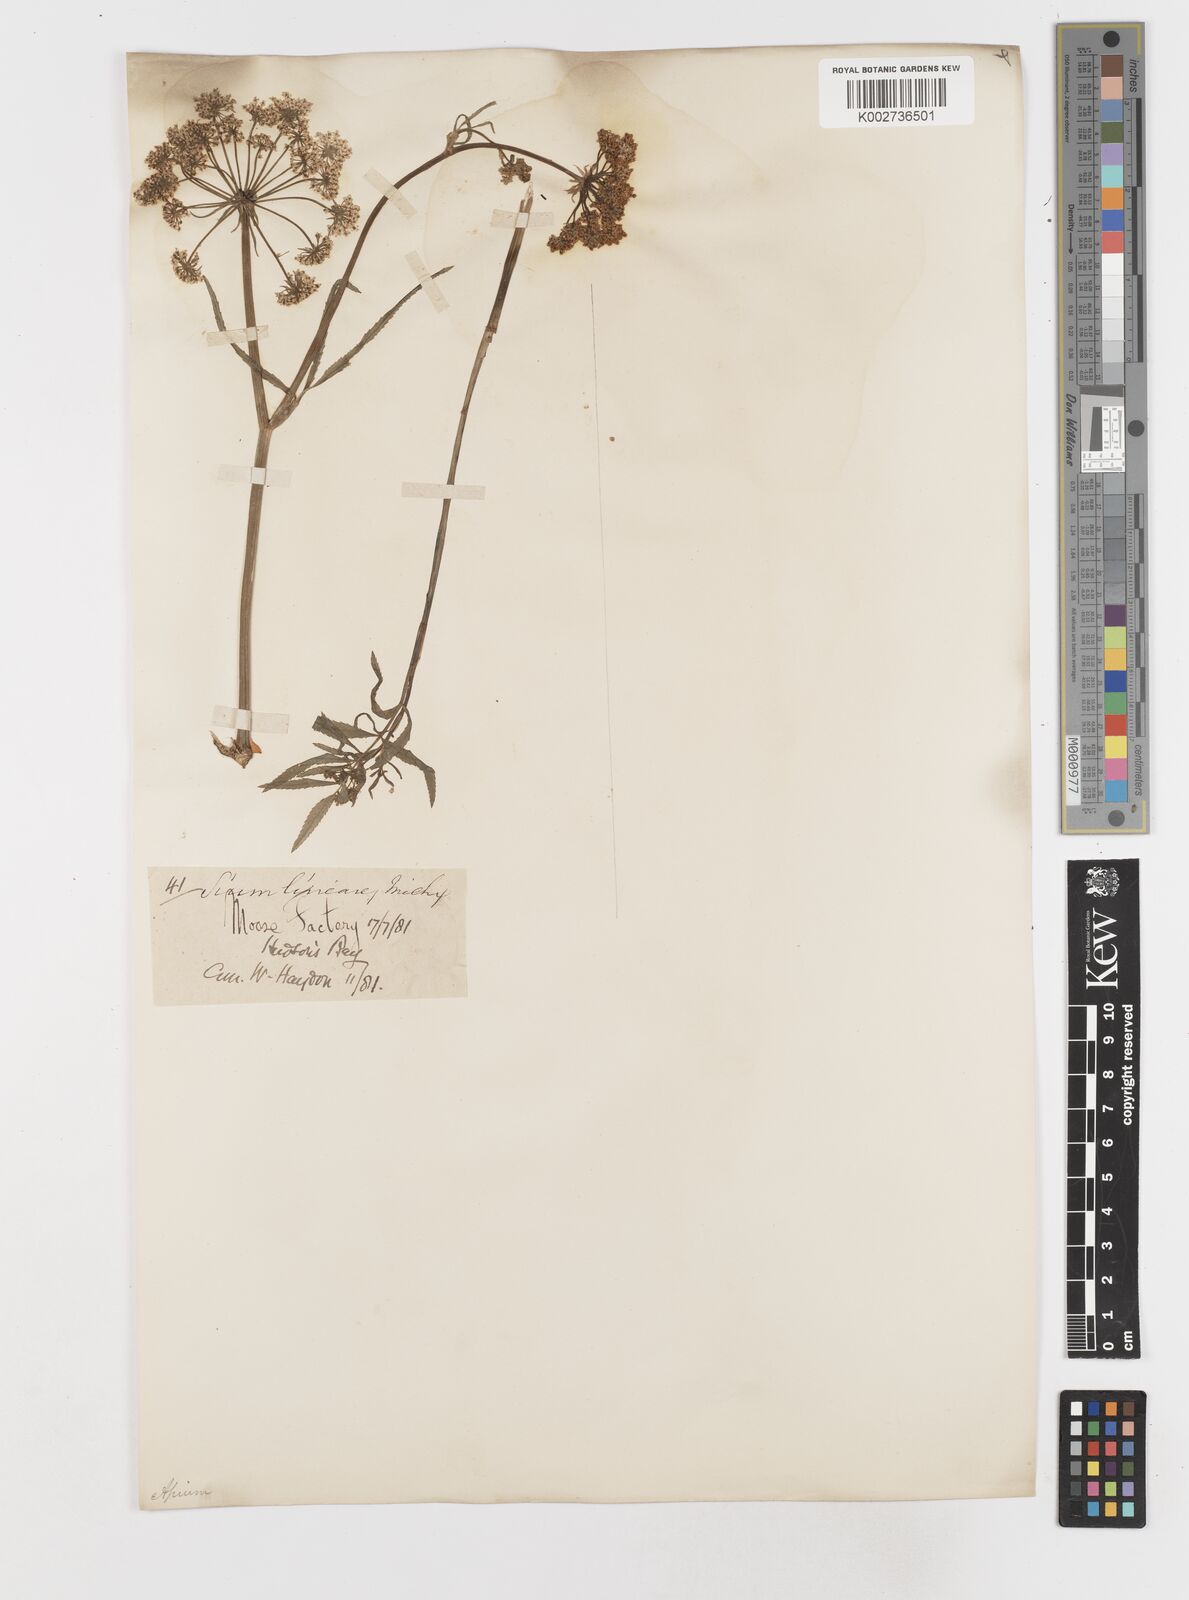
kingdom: Plantae
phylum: Tracheophyta
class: Magnoliopsida
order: Apiales
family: Apiaceae
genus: Sium
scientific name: Sium suave
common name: Hemlock water-parsnip
